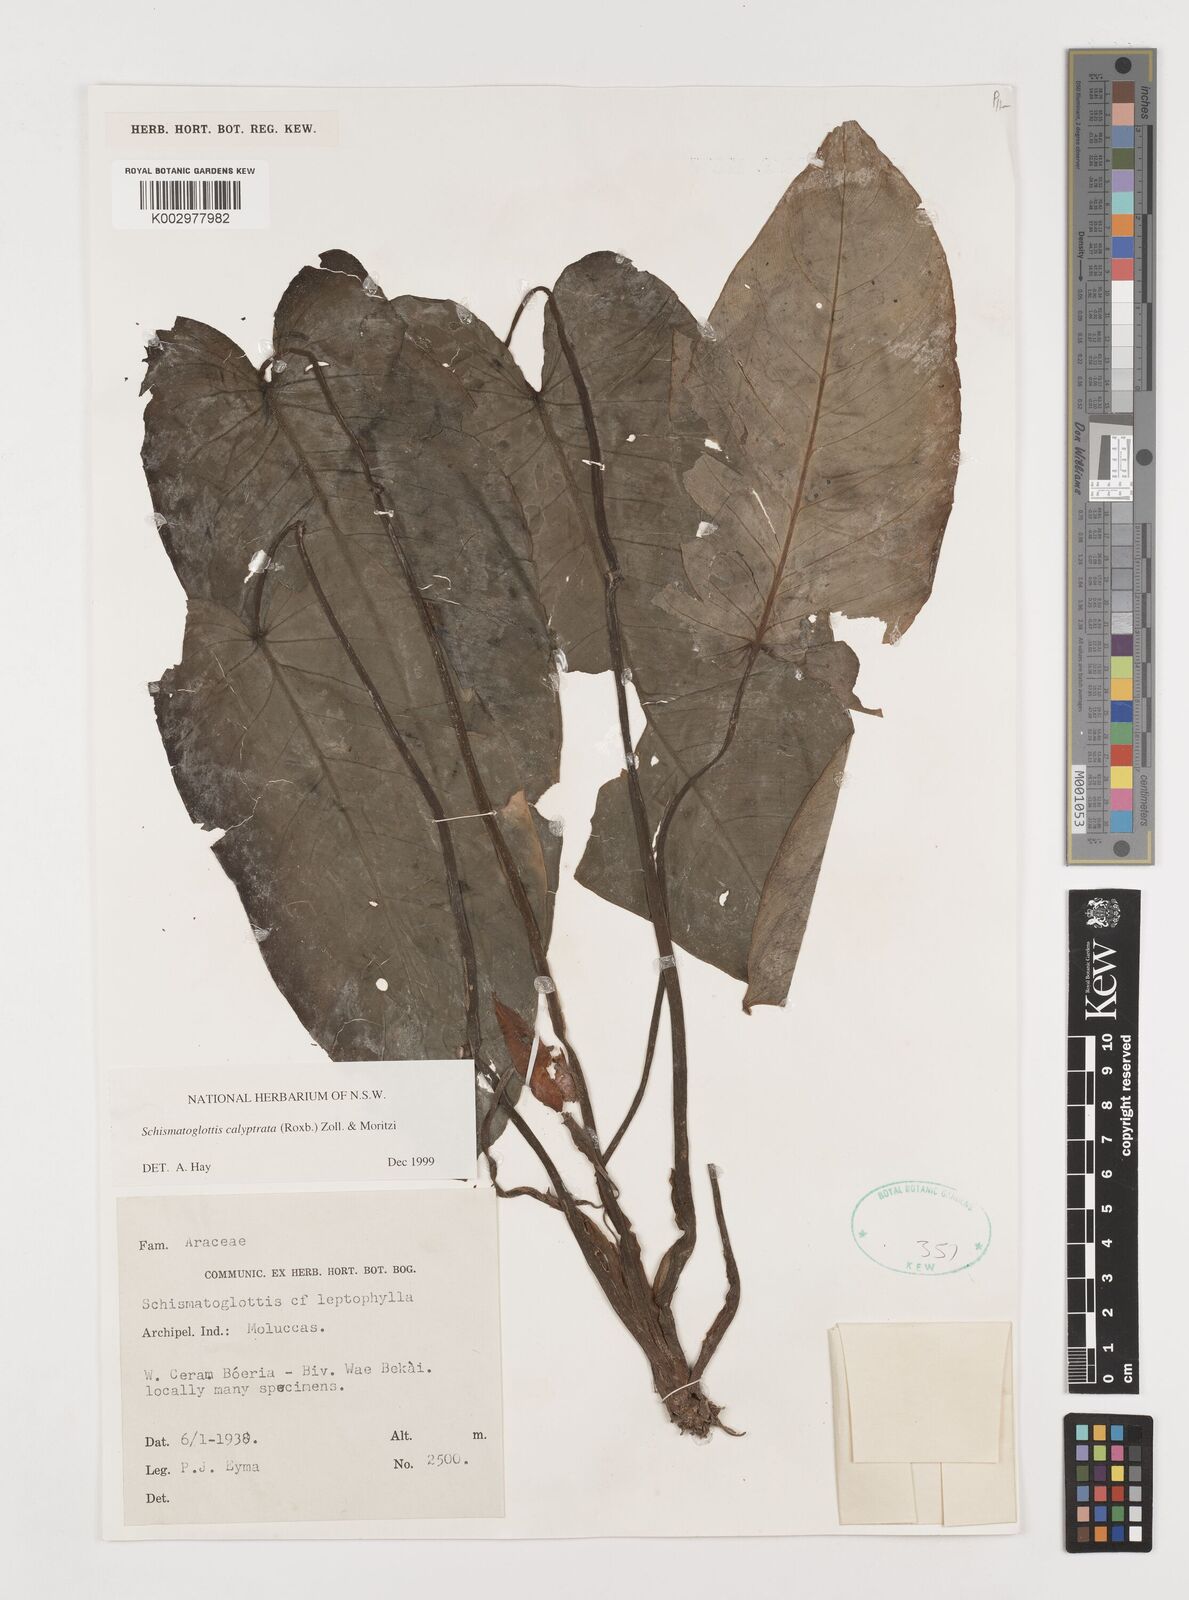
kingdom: Plantae
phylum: Tracheophyta
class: Liliopsida
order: Alismatales
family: Araceae
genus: Schismatoglottis
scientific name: Schismatoglottis calyptrata
